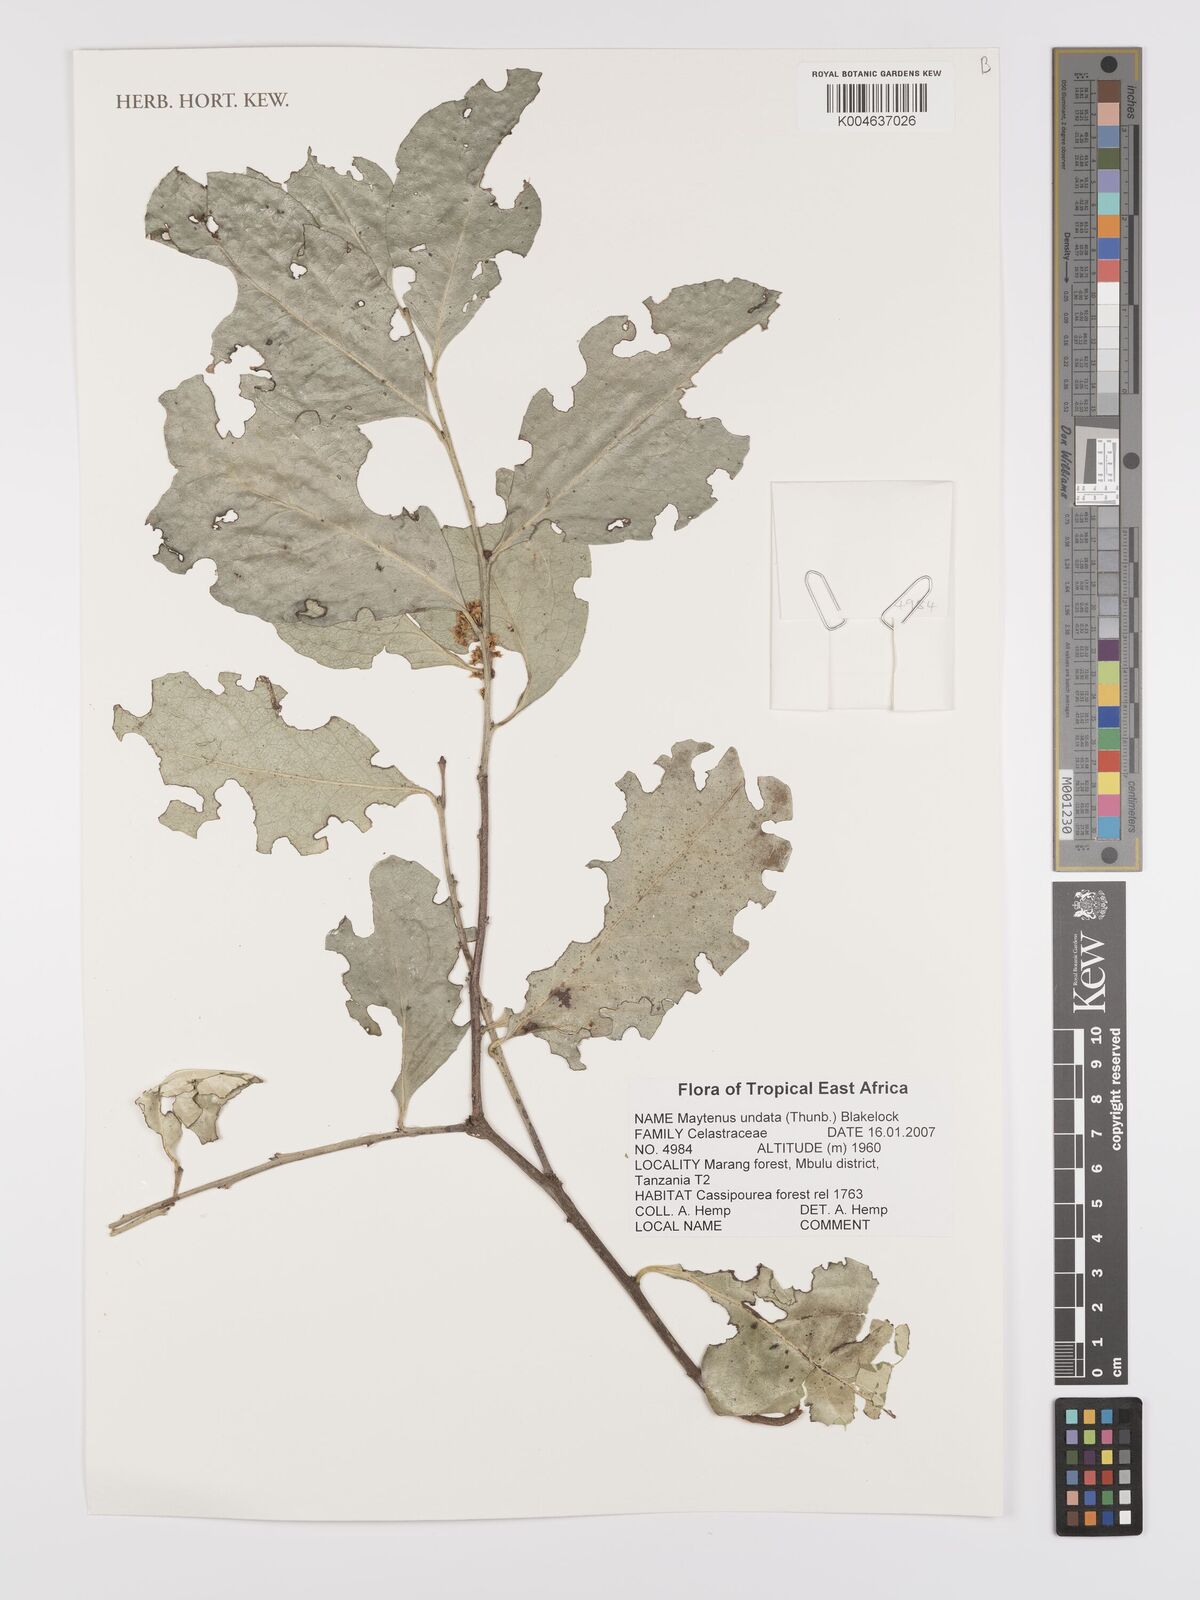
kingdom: Plantae
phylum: Tracheophyta
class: Magnoliopsida
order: Celastrales
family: Celastraceae
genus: Gymnosporia
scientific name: Gymnosporia undata
